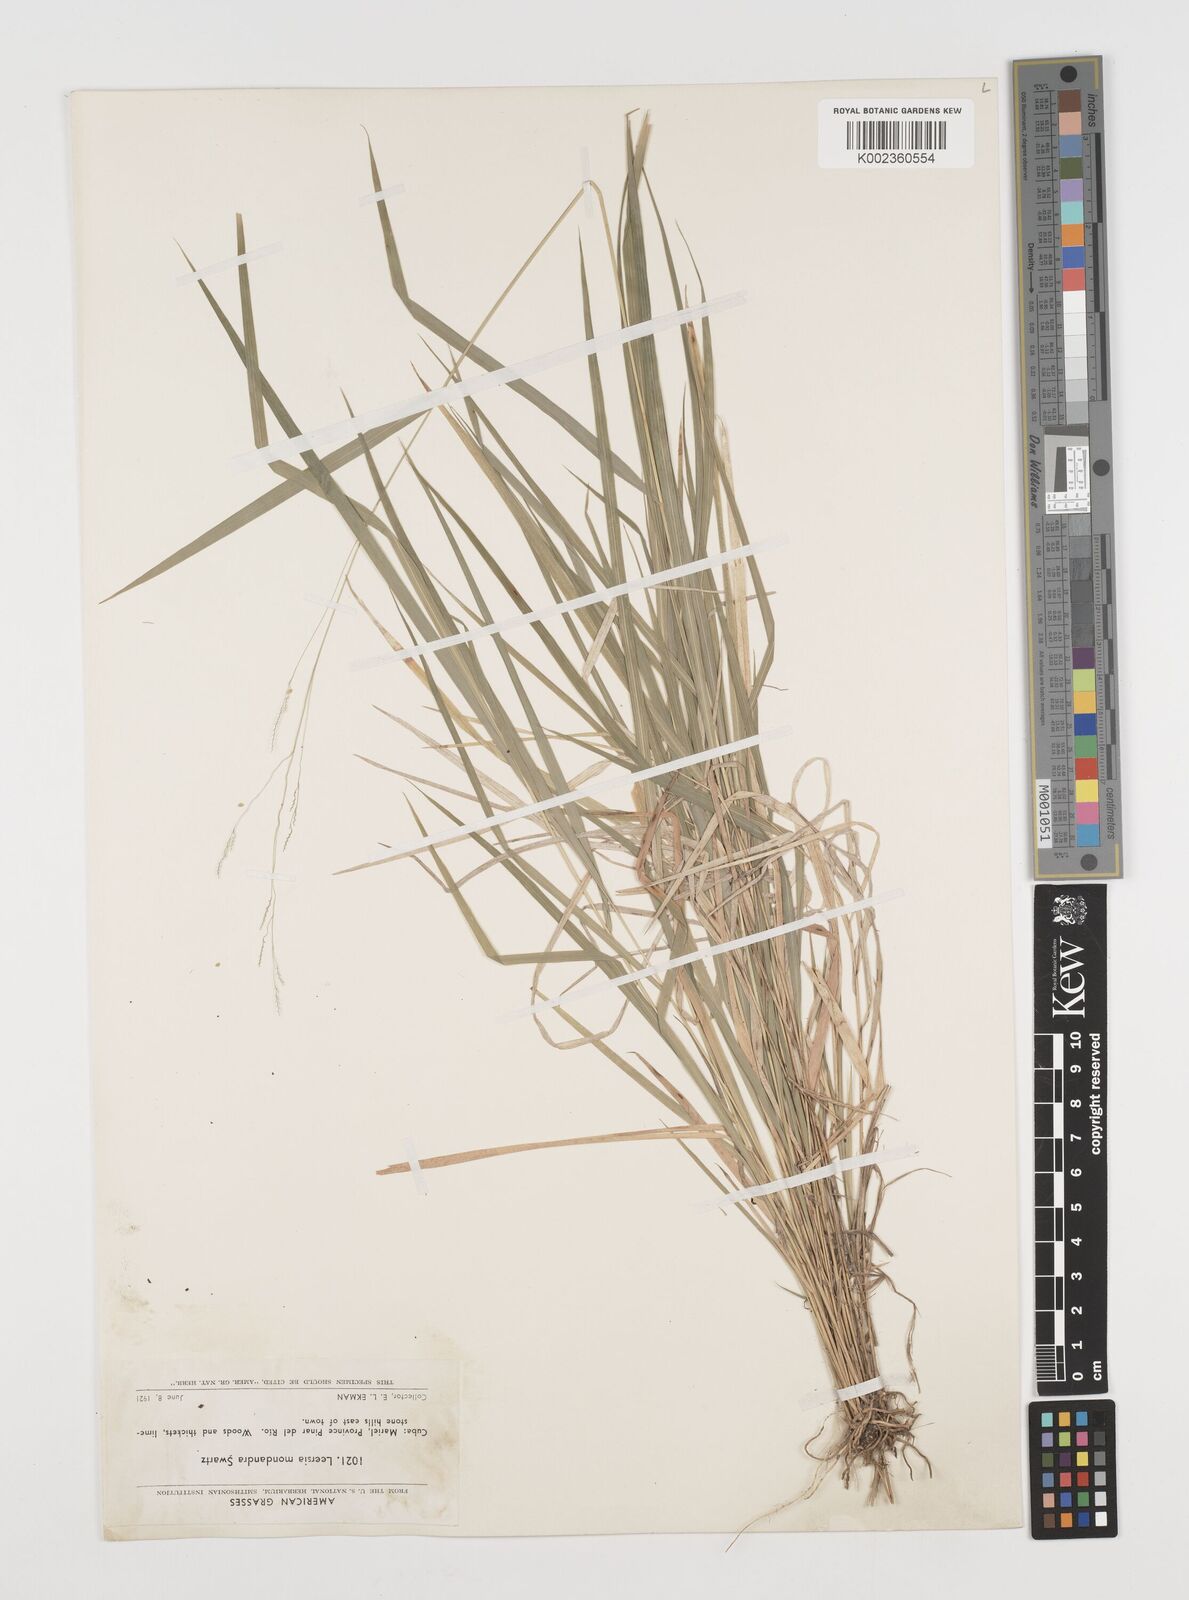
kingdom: Plantae
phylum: Tracheophyta
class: Liliopsida
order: Poales
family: Poaceae
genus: Leersia
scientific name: Leersia monandra
